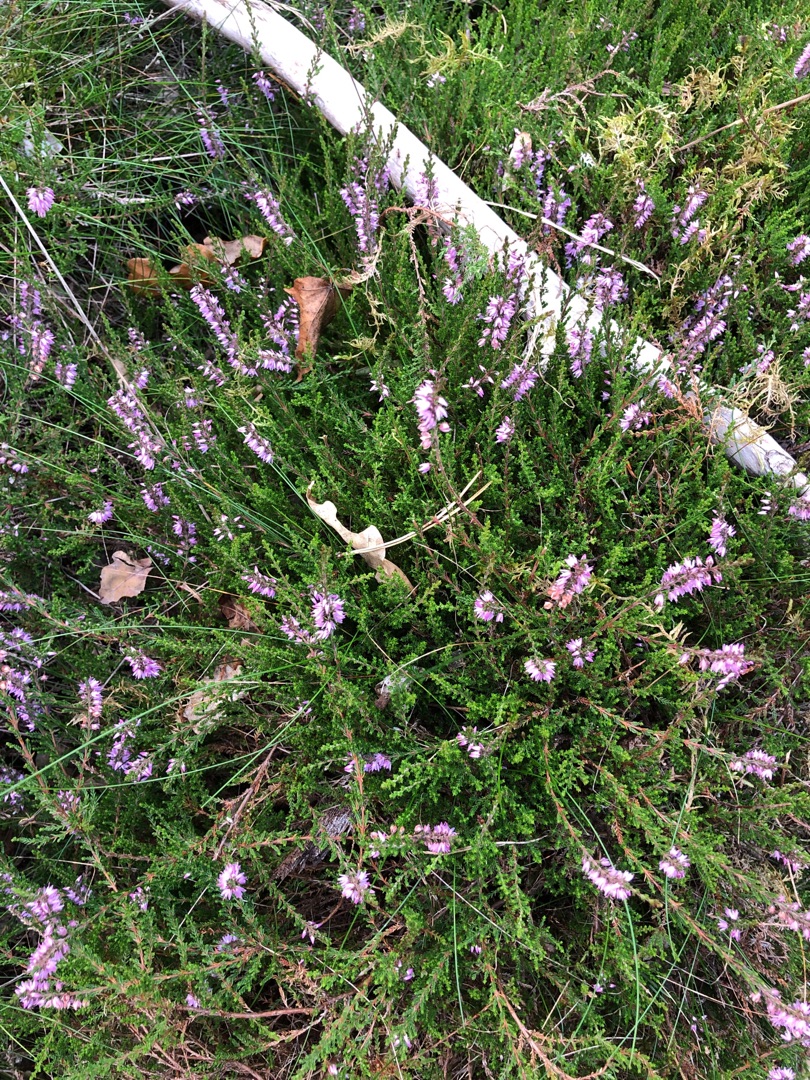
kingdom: Plantae
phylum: Tracheophyta
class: Magnoliopsida
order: Ericales
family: Ericaceae
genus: Calluna
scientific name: Calluna vulgaris
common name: Hedelyng
